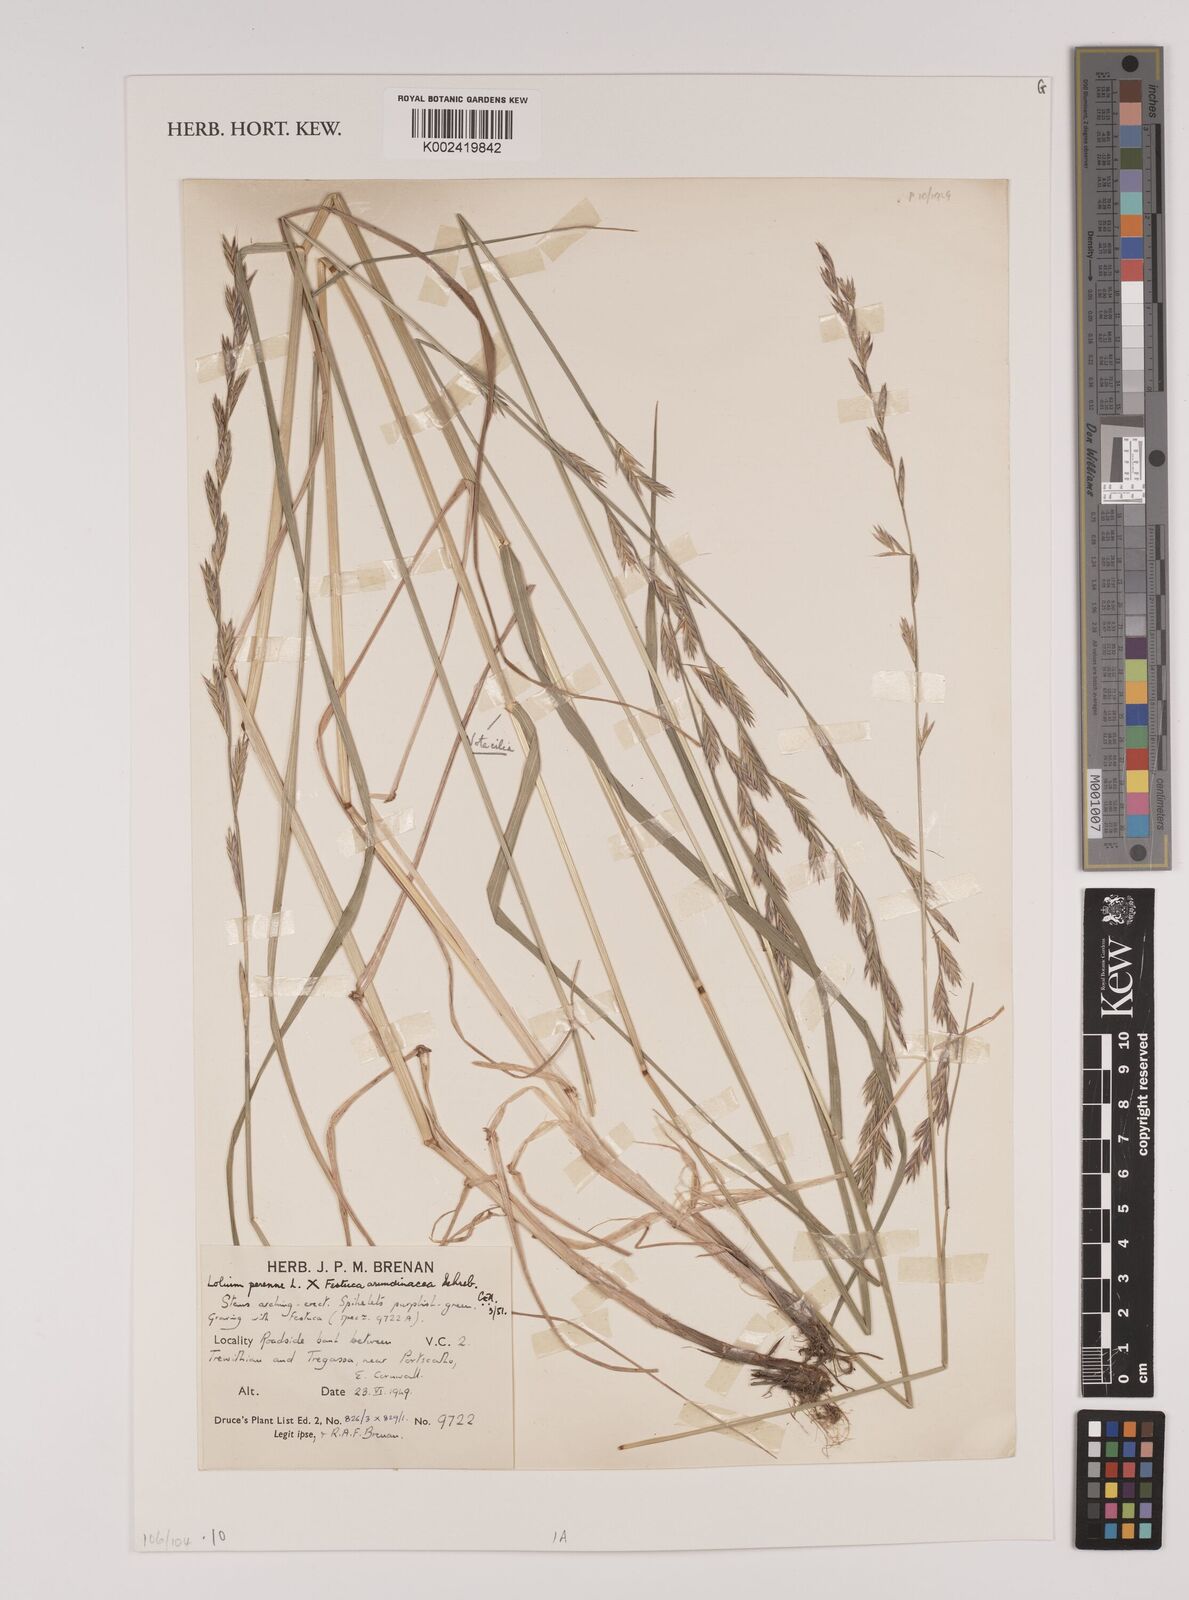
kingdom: Plantae
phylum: Tracheophyta
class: Liliopsida
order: Poales
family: Poaceae
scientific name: Poaceae
